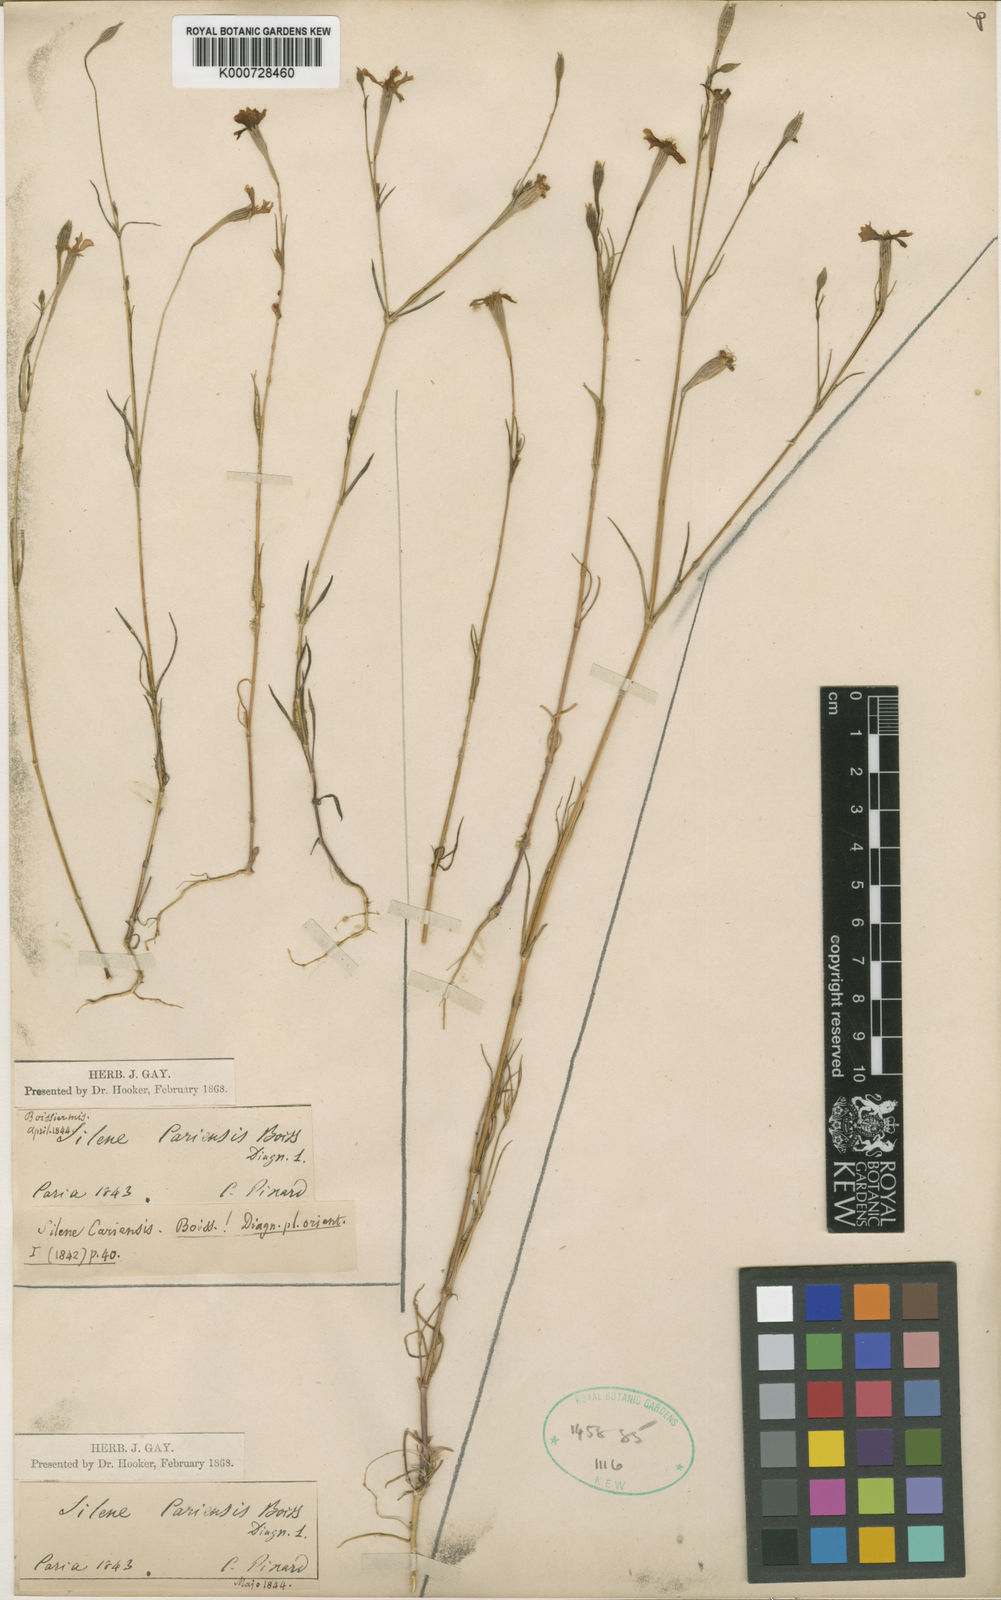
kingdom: Plantae
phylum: Tracheophyta
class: Magnoliopsida
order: Caryophyllales
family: Caryophyllaceae
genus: Silene
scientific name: Silene cariensis
